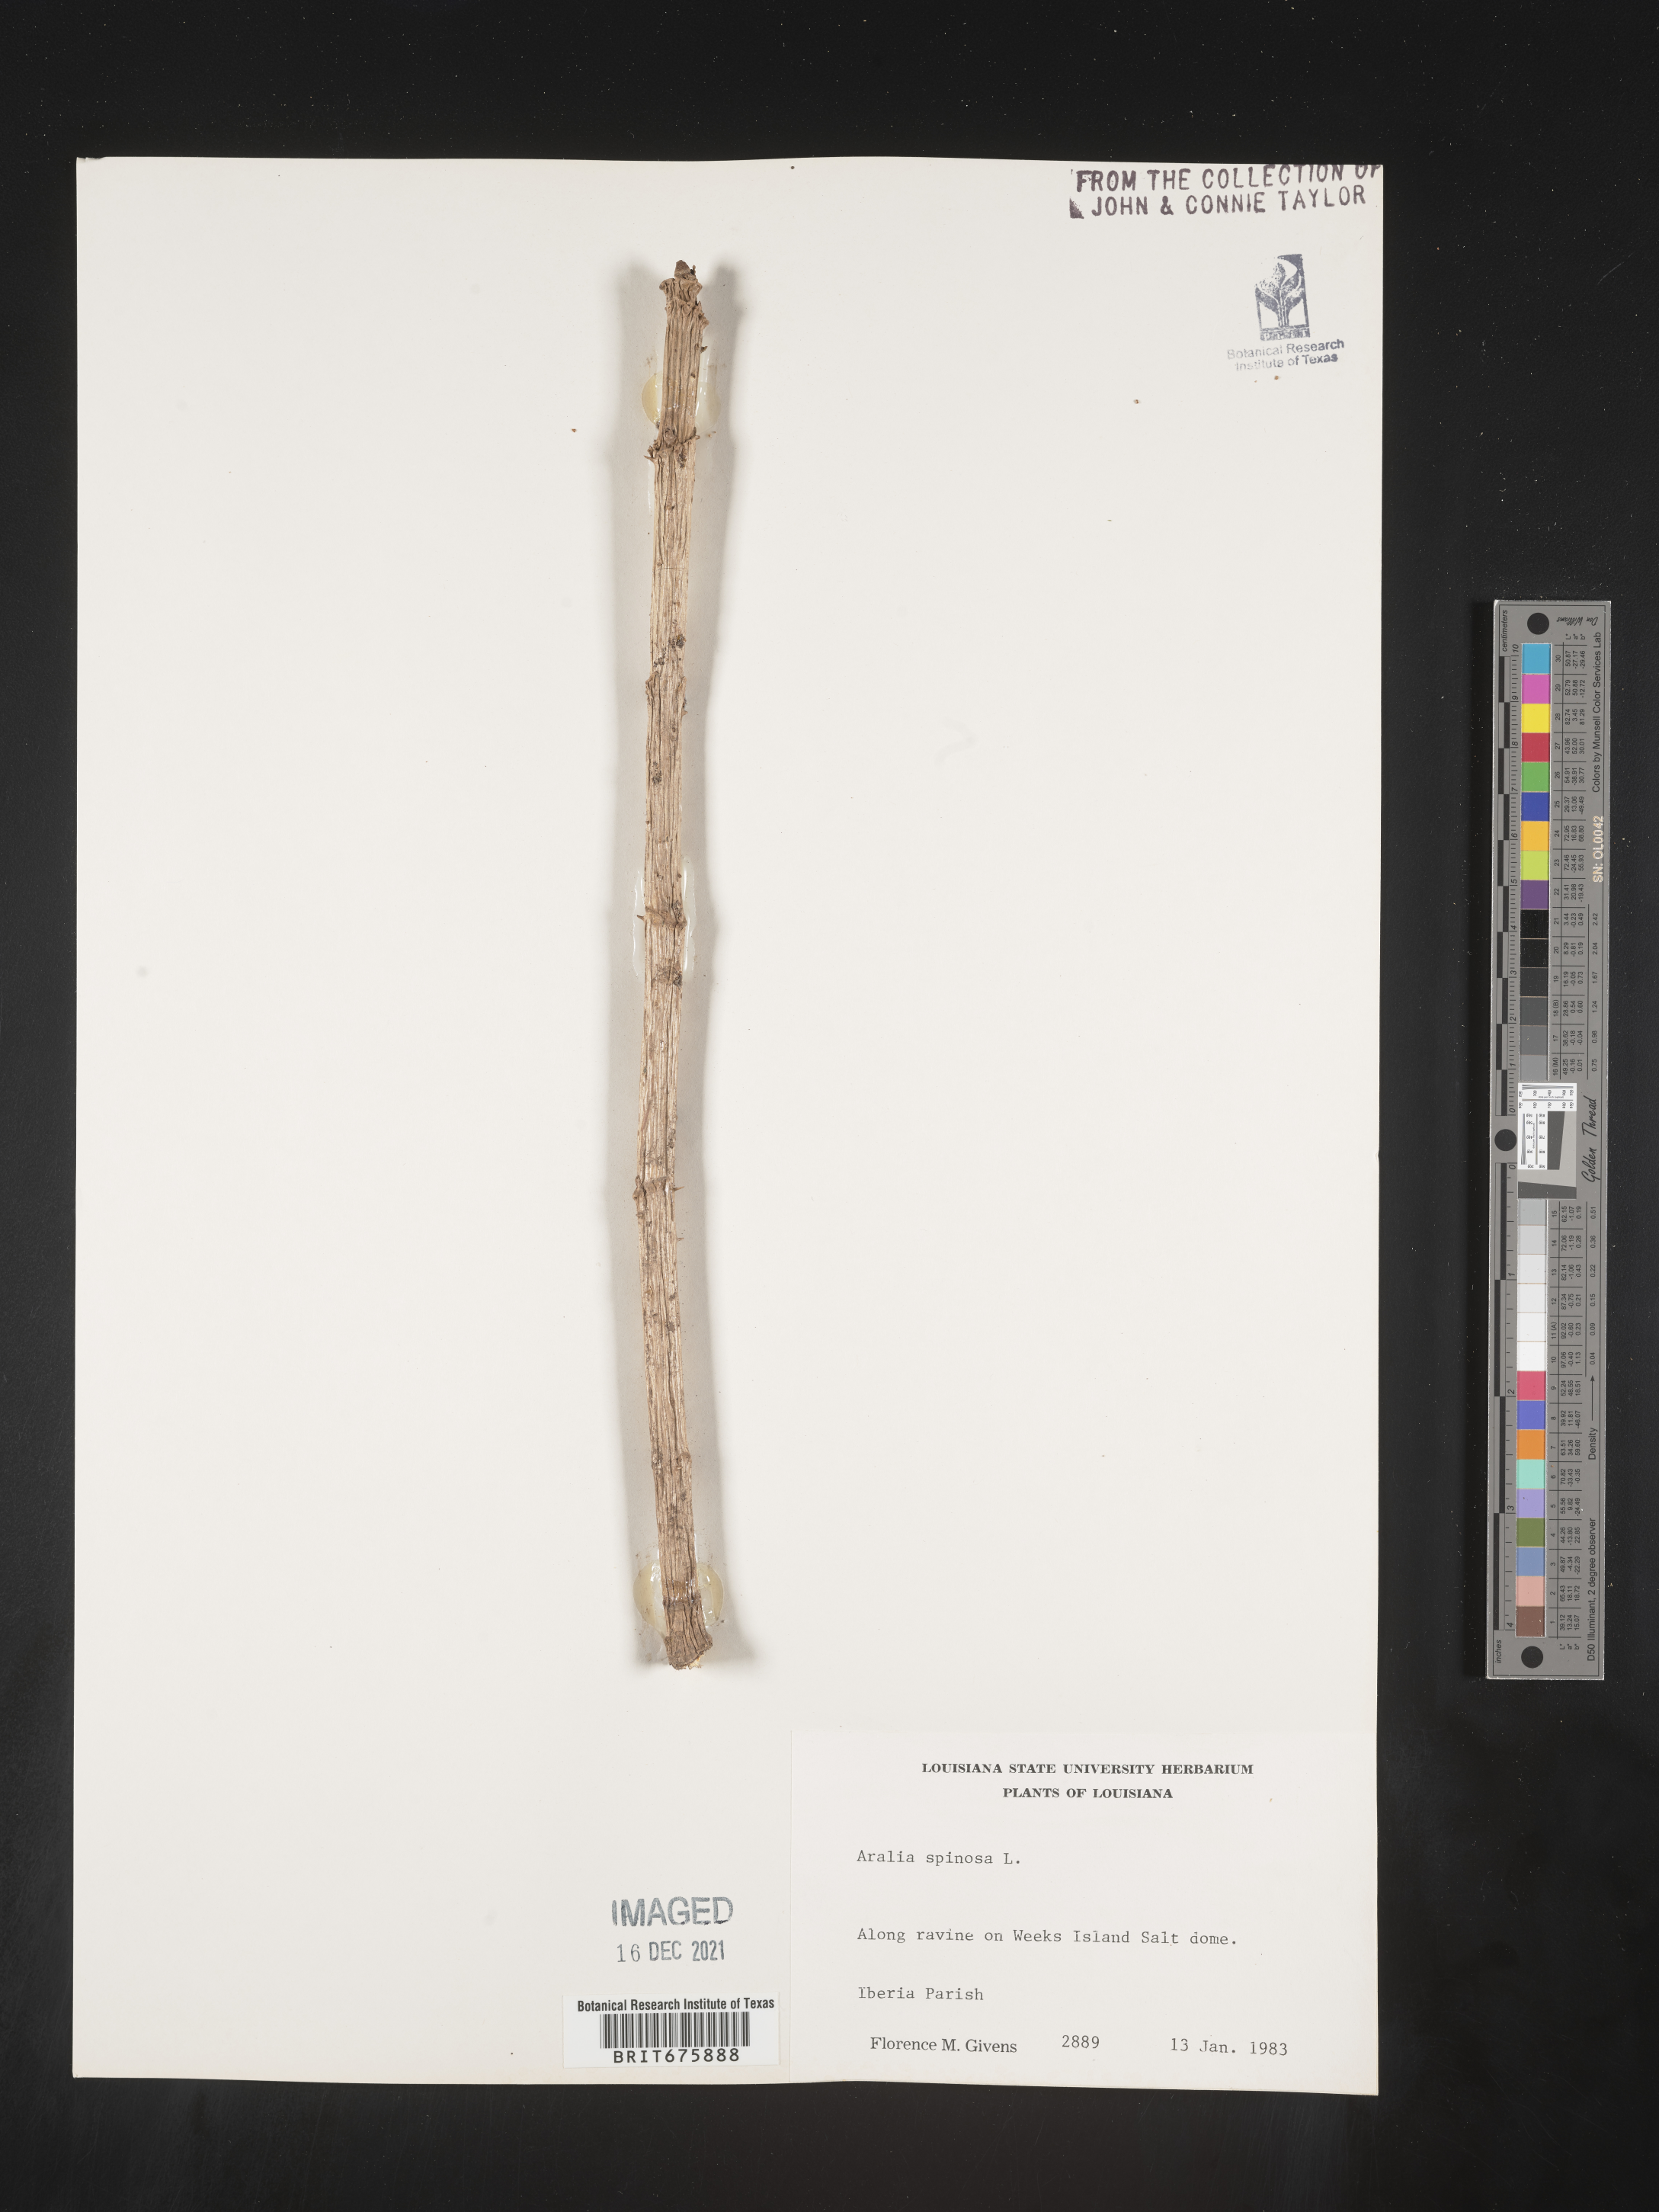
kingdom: Plantae
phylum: Tracheophyta
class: Magnoliopsida
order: Apiales
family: Araliaceae
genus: Aralia
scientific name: Aralia spinosa
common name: Hercules'-club
